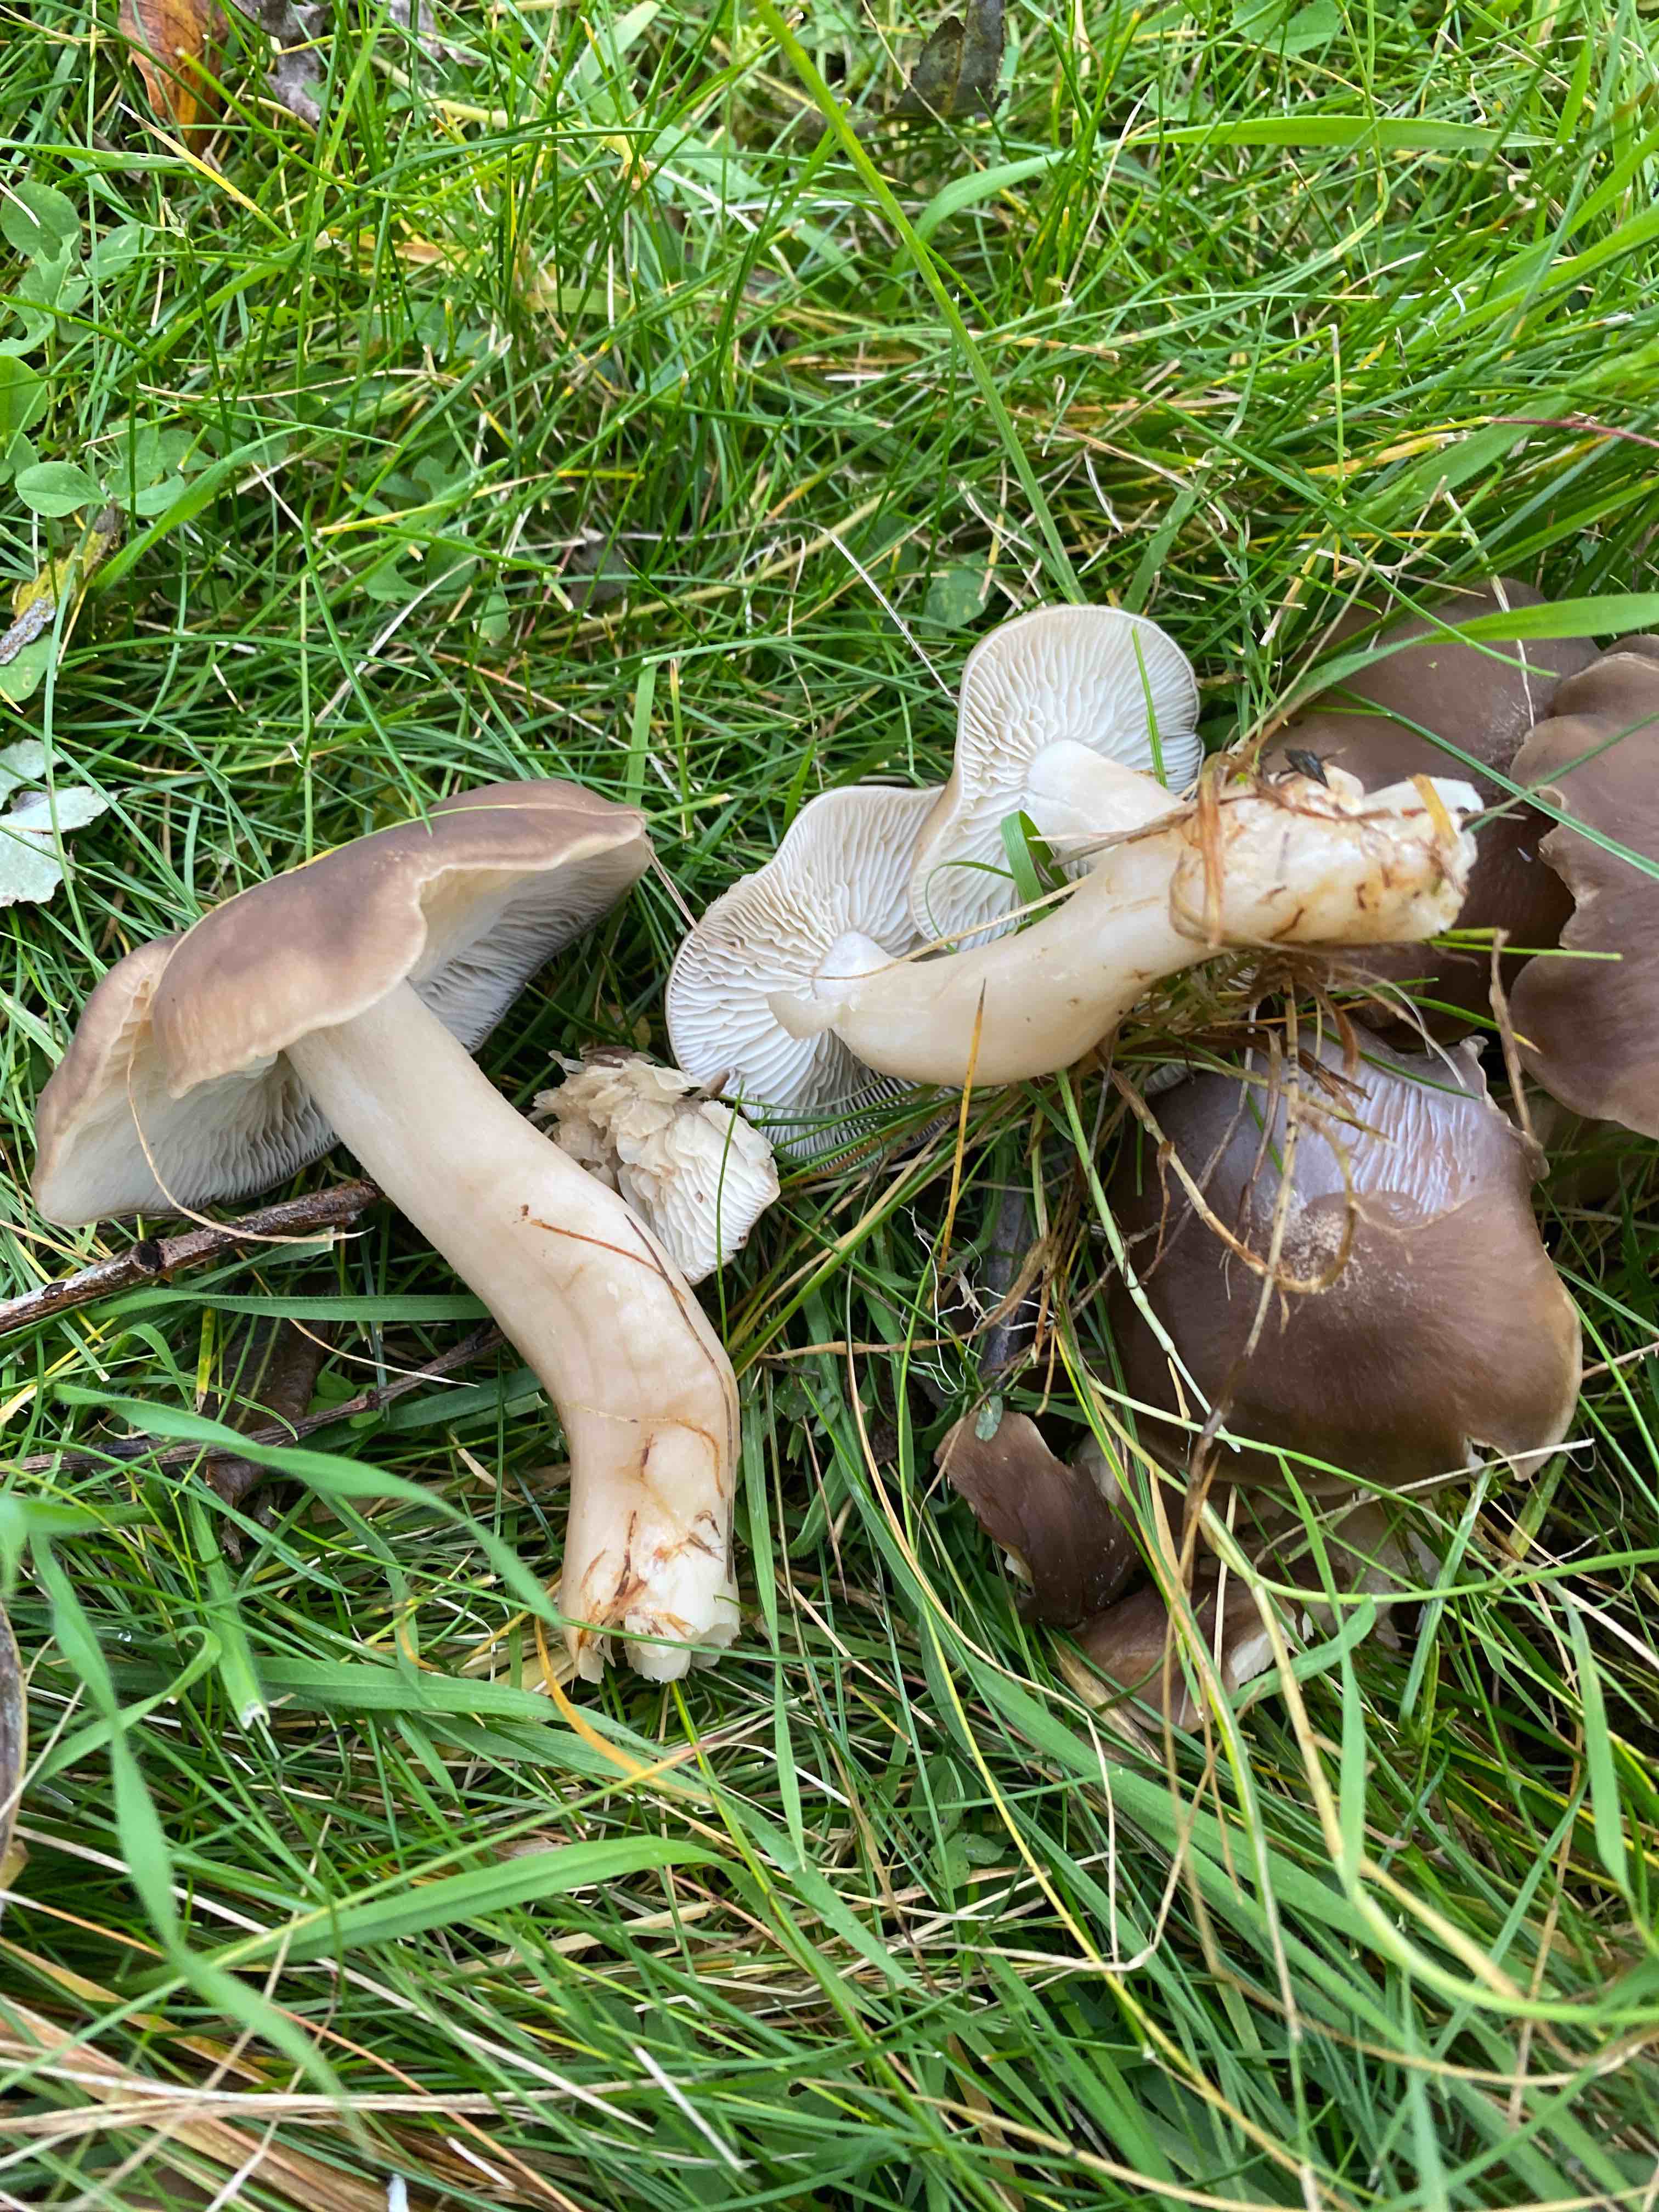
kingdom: Fungi
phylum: Basidiomycota
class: Agaricomycetes
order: Agaricales
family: Lyophyllaceae
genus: Lyophyllum
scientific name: Lyophyllum decastes
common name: røggrå gråblad
